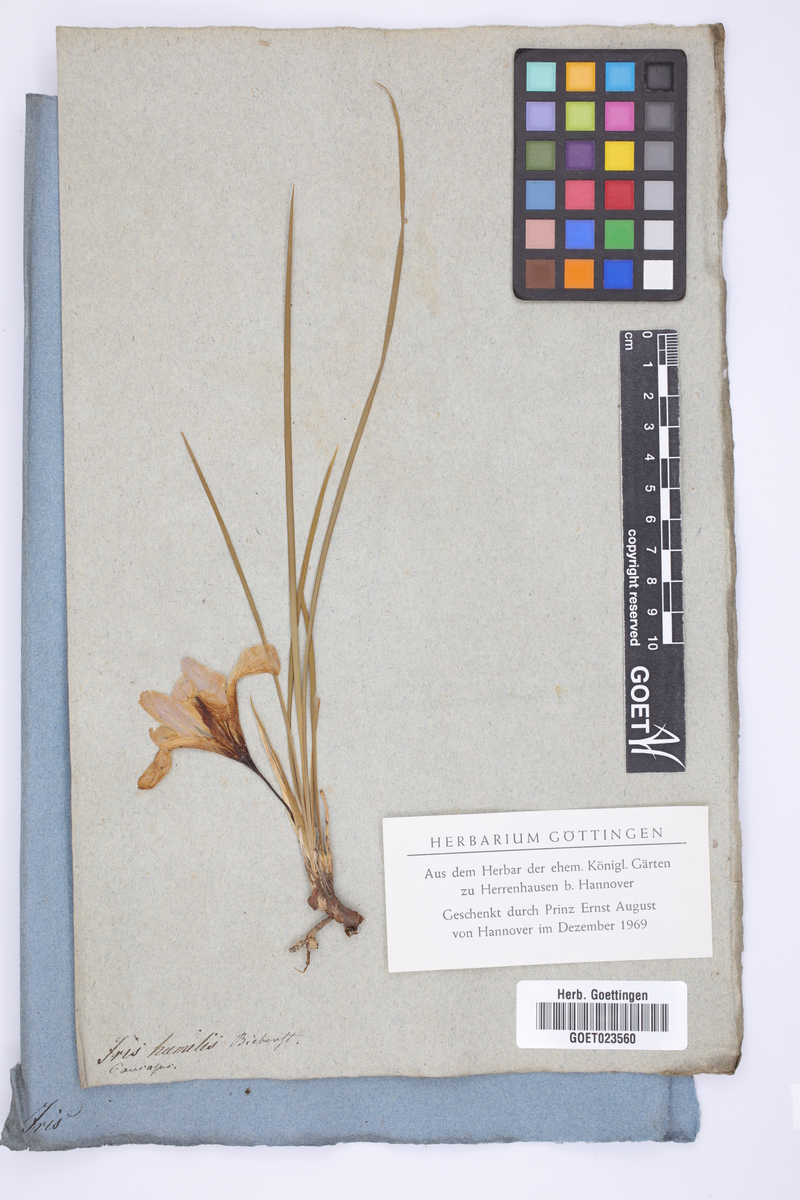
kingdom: Plantae
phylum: Tracheophyta
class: Liliopsida
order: Asparagales
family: Iridaceae
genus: Iris
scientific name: Iris pontica
